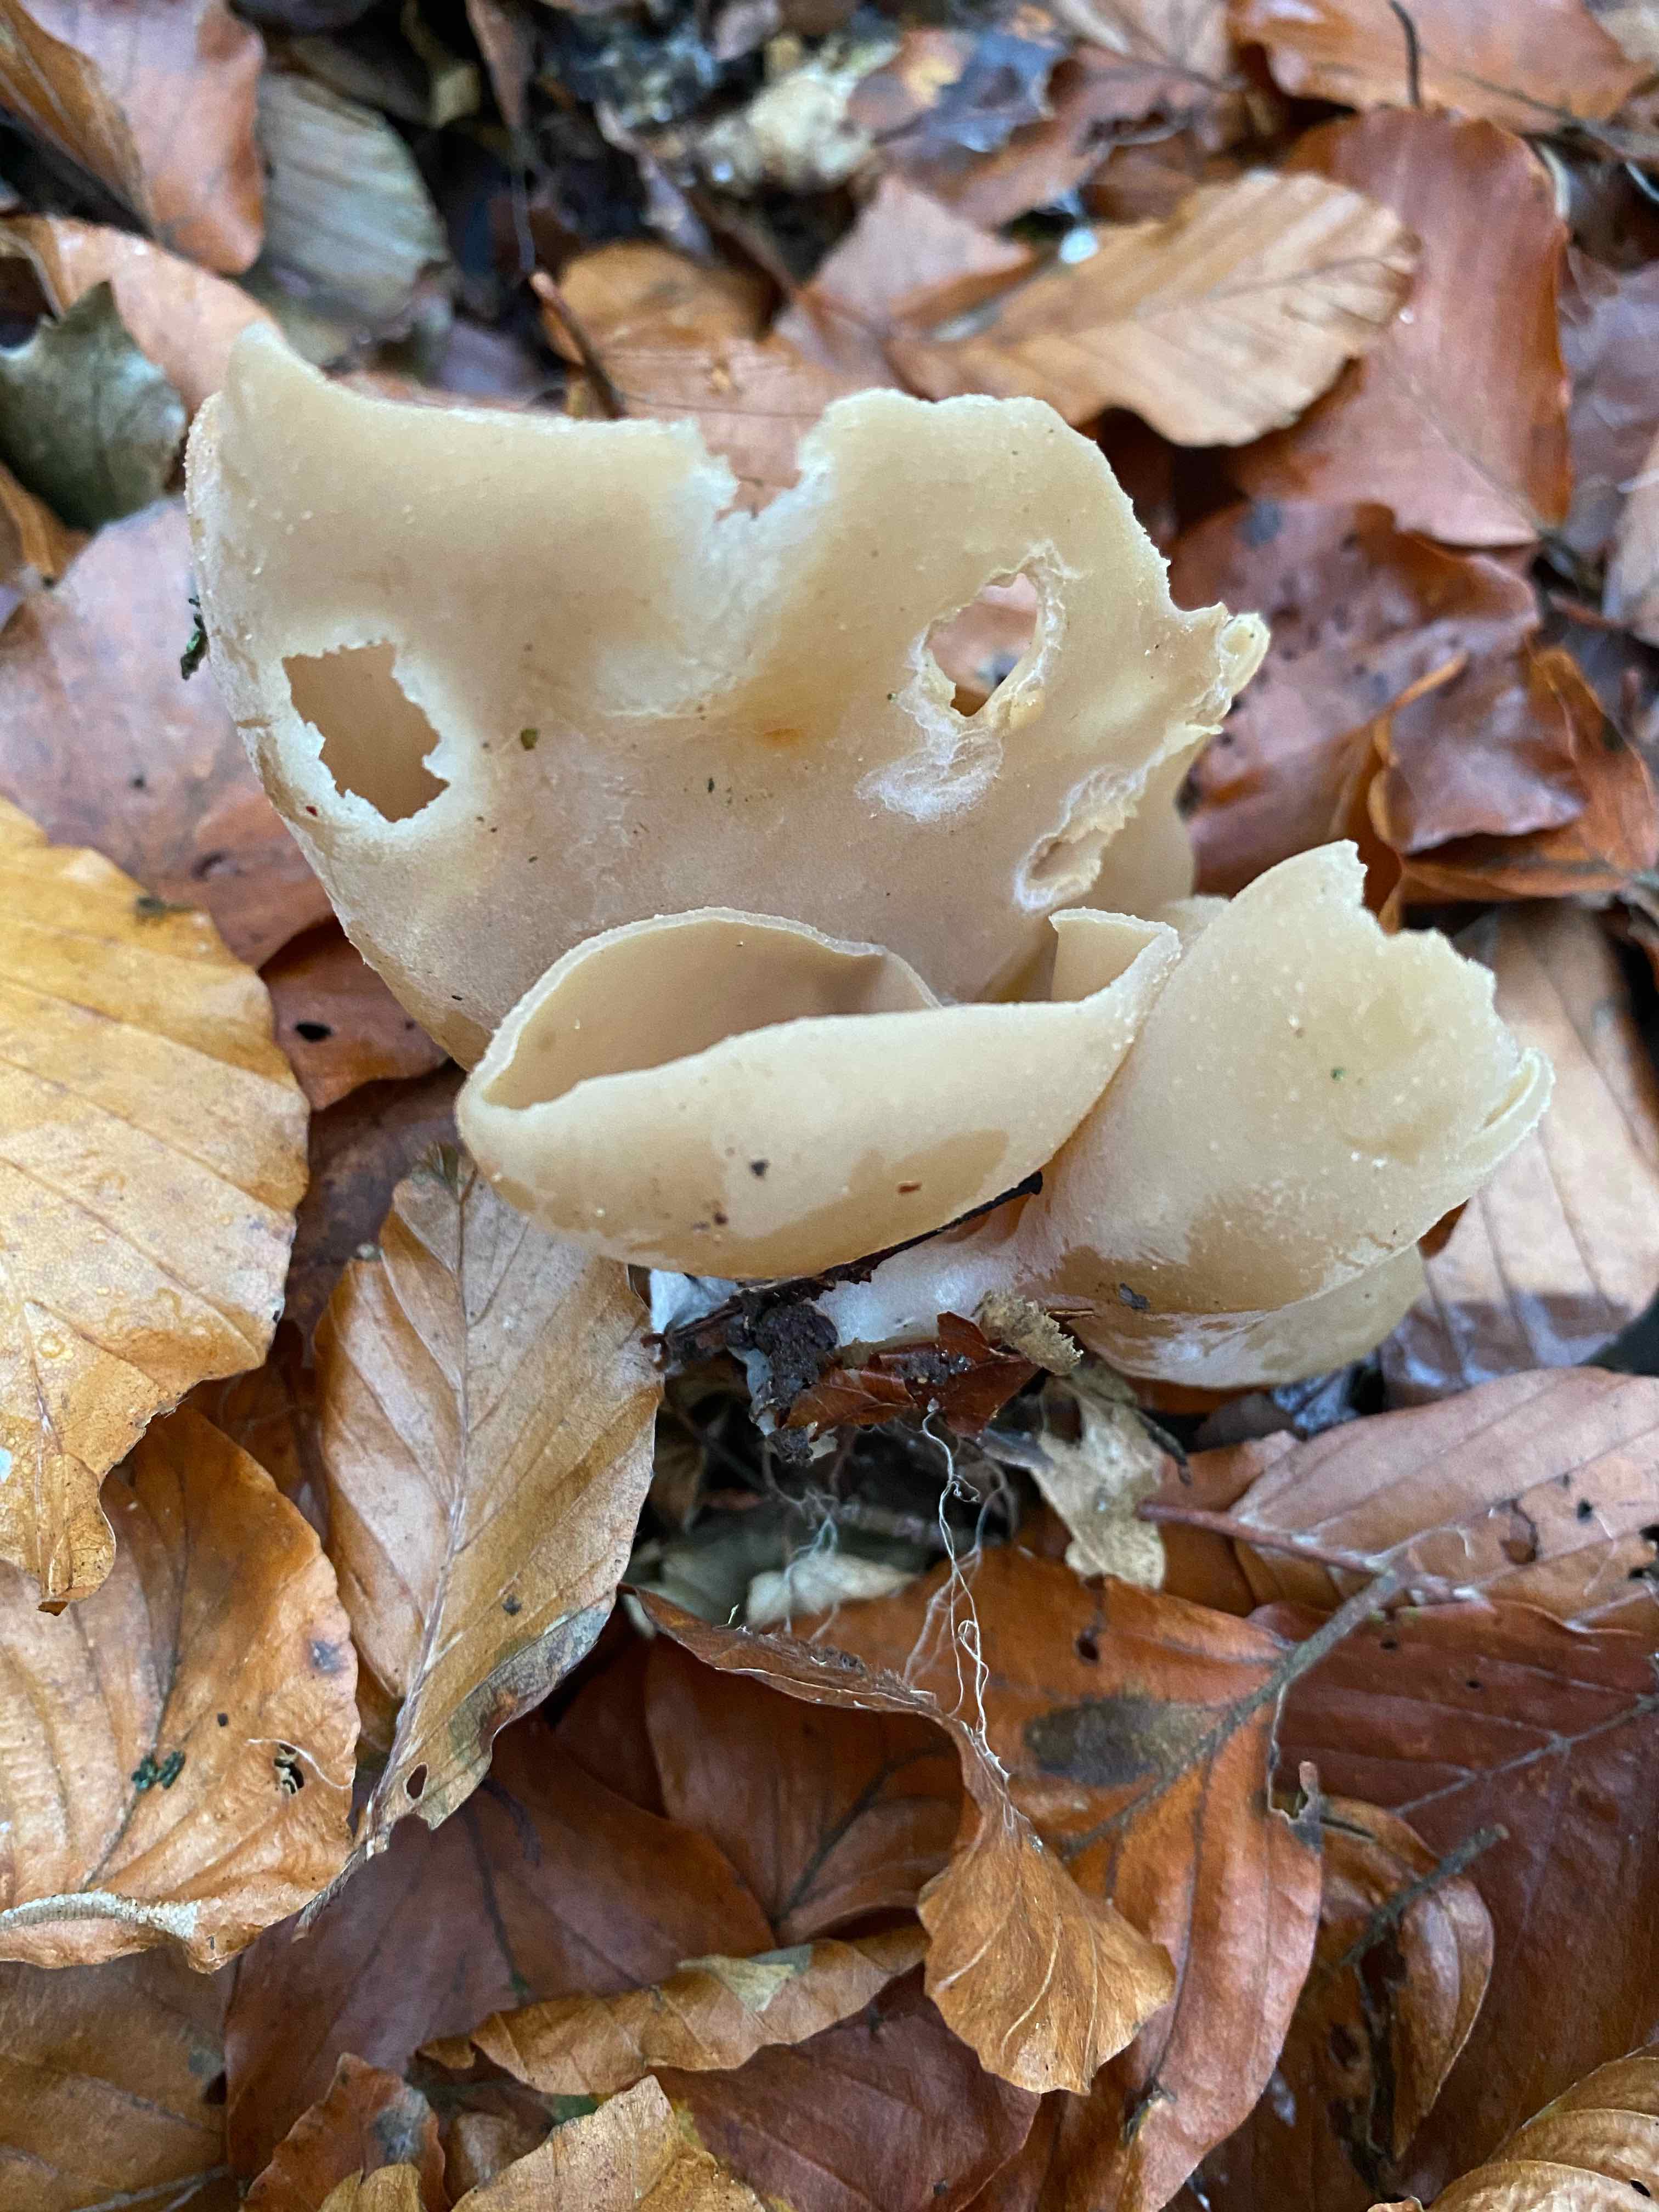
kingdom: Fungi
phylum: Ascomycota
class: Pezizomycetes
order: Pezizales
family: Pezizaceae
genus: Peziza
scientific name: Peziza
